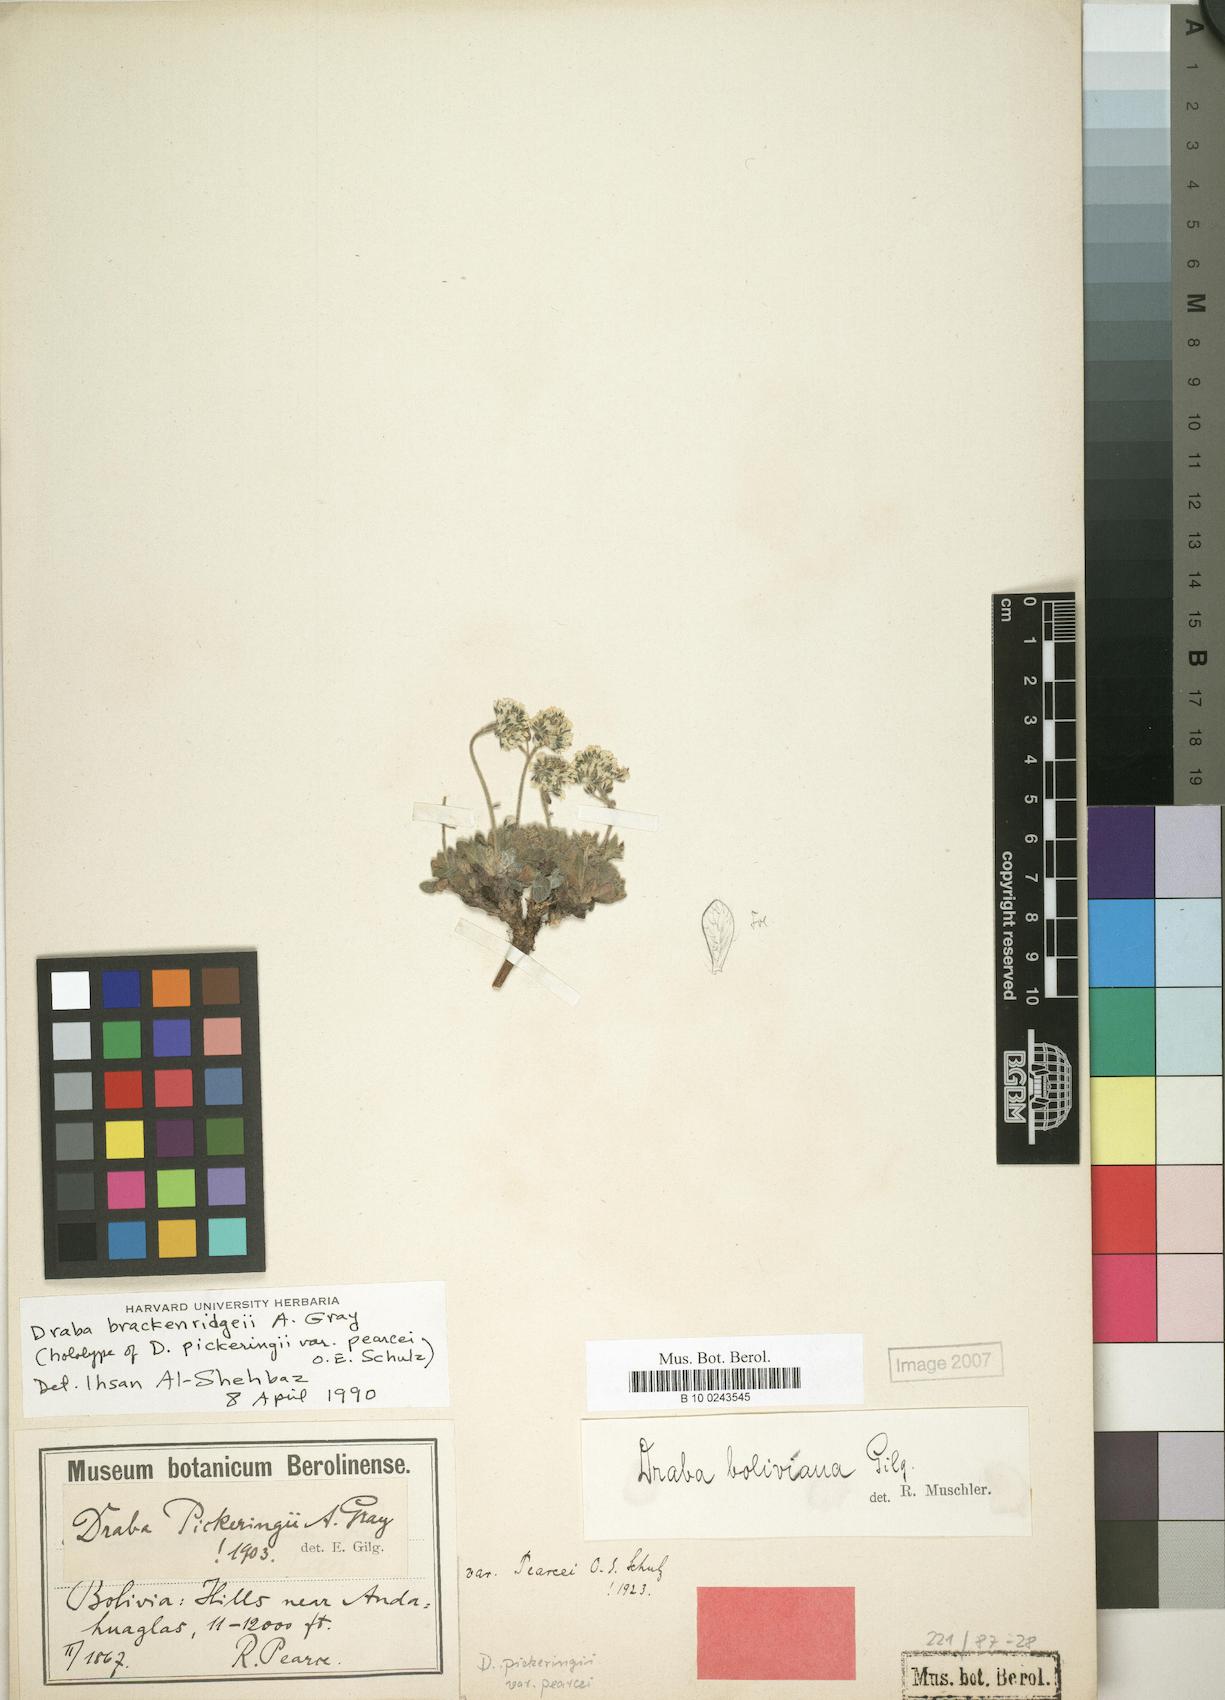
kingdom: Plantae
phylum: Tracheophyta
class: Magnoliopsida
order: Brassicales
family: Brassicaceae
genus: Draba
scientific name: Draba brackenridgei
